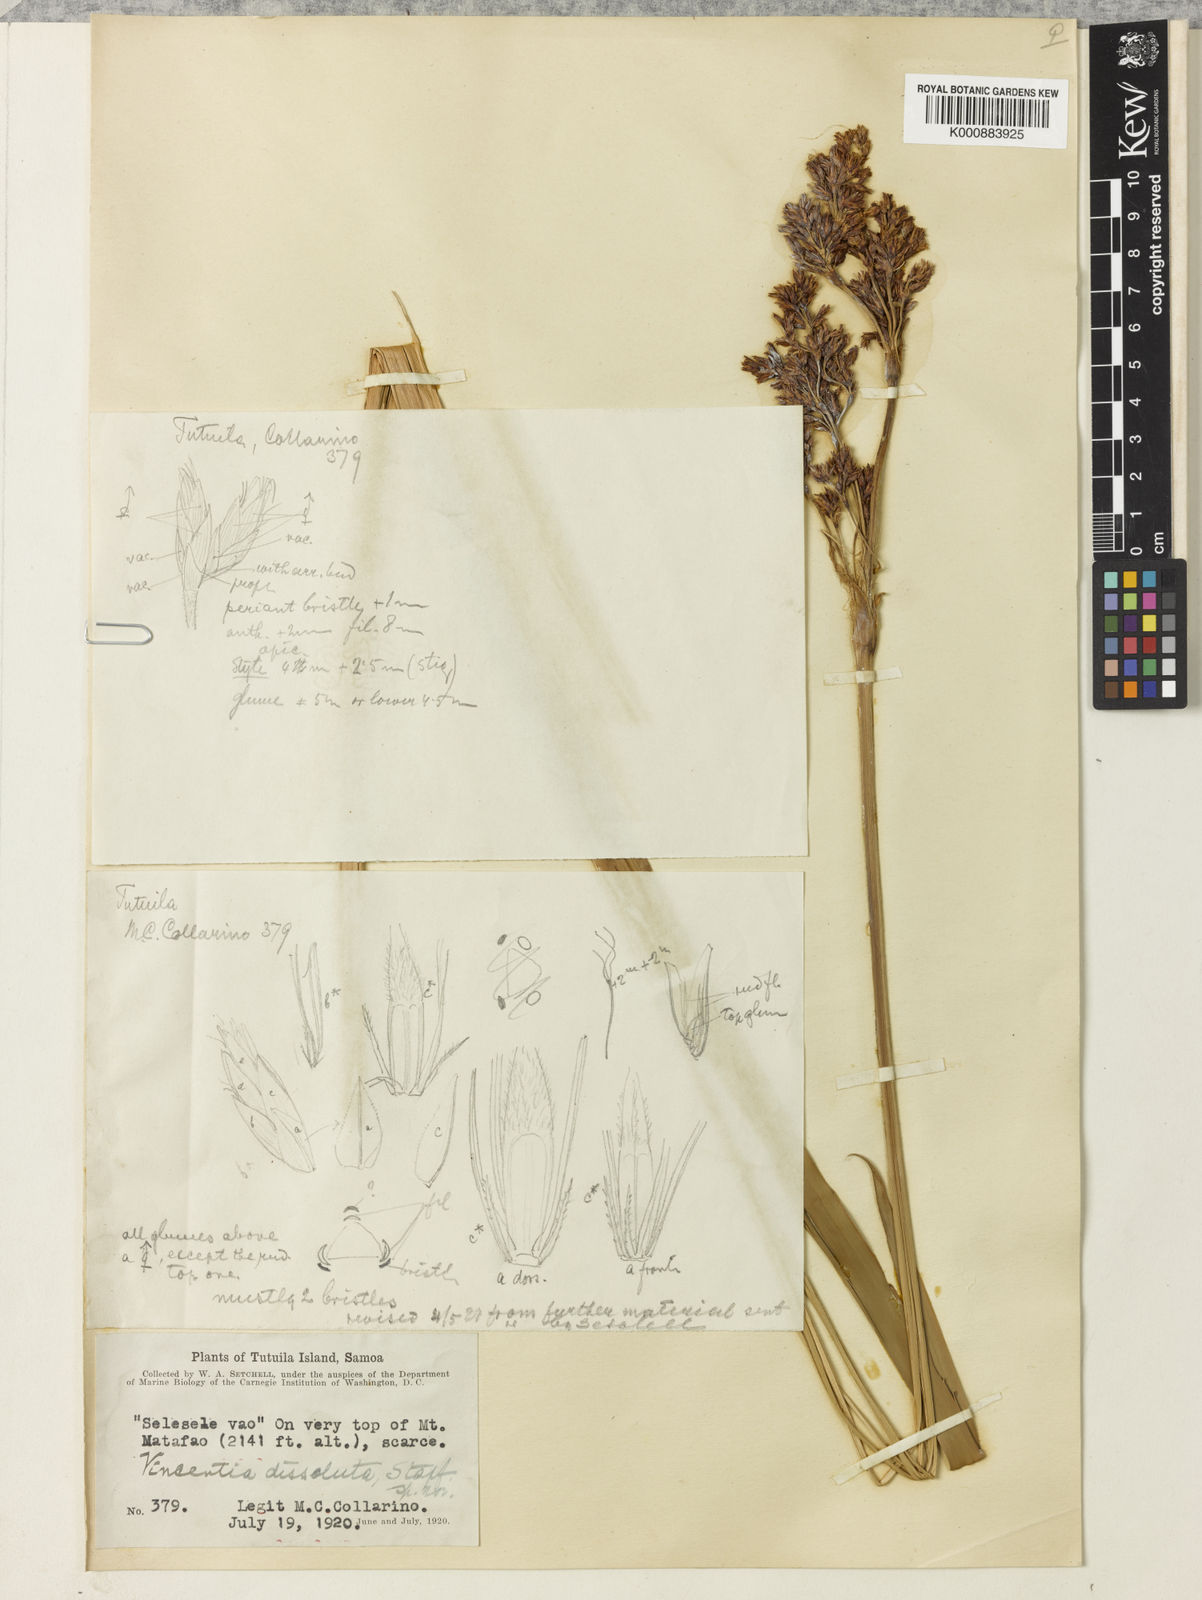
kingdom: Plantae
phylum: Tracheophyta
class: Liliopsida
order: Poales
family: Cyperaceae
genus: Machaerina
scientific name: Machaerina
